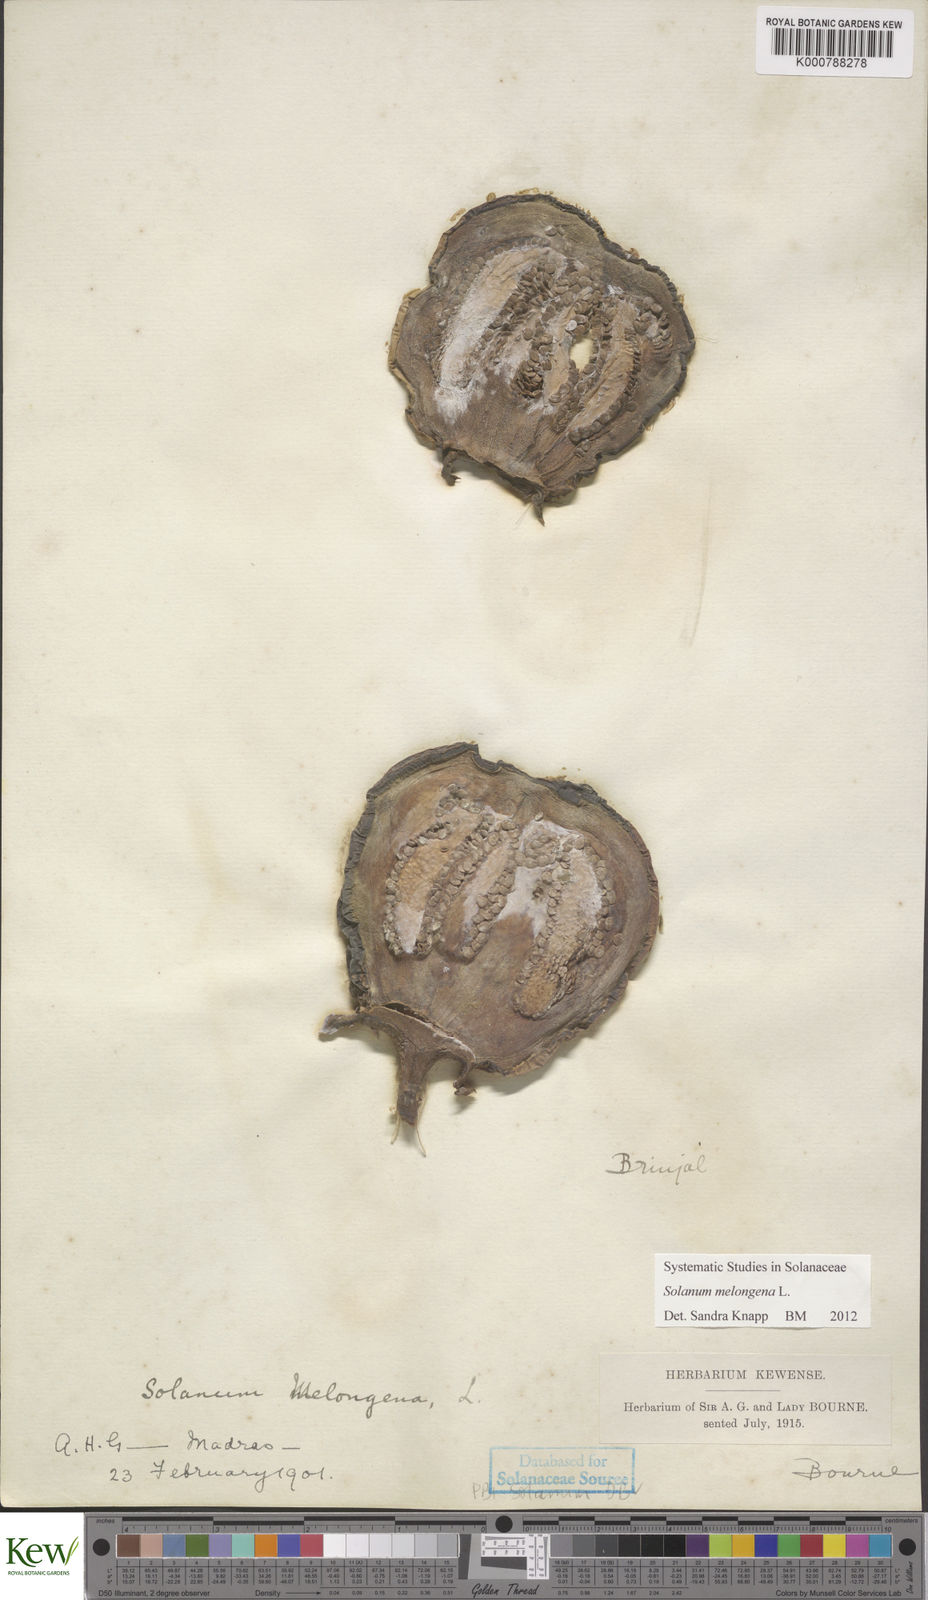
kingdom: Plantae
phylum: Tracheophyta
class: Magnoliopsida
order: Solanales
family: Solanaceae
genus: Solanum
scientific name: Solanum melongena
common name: Eggplant
